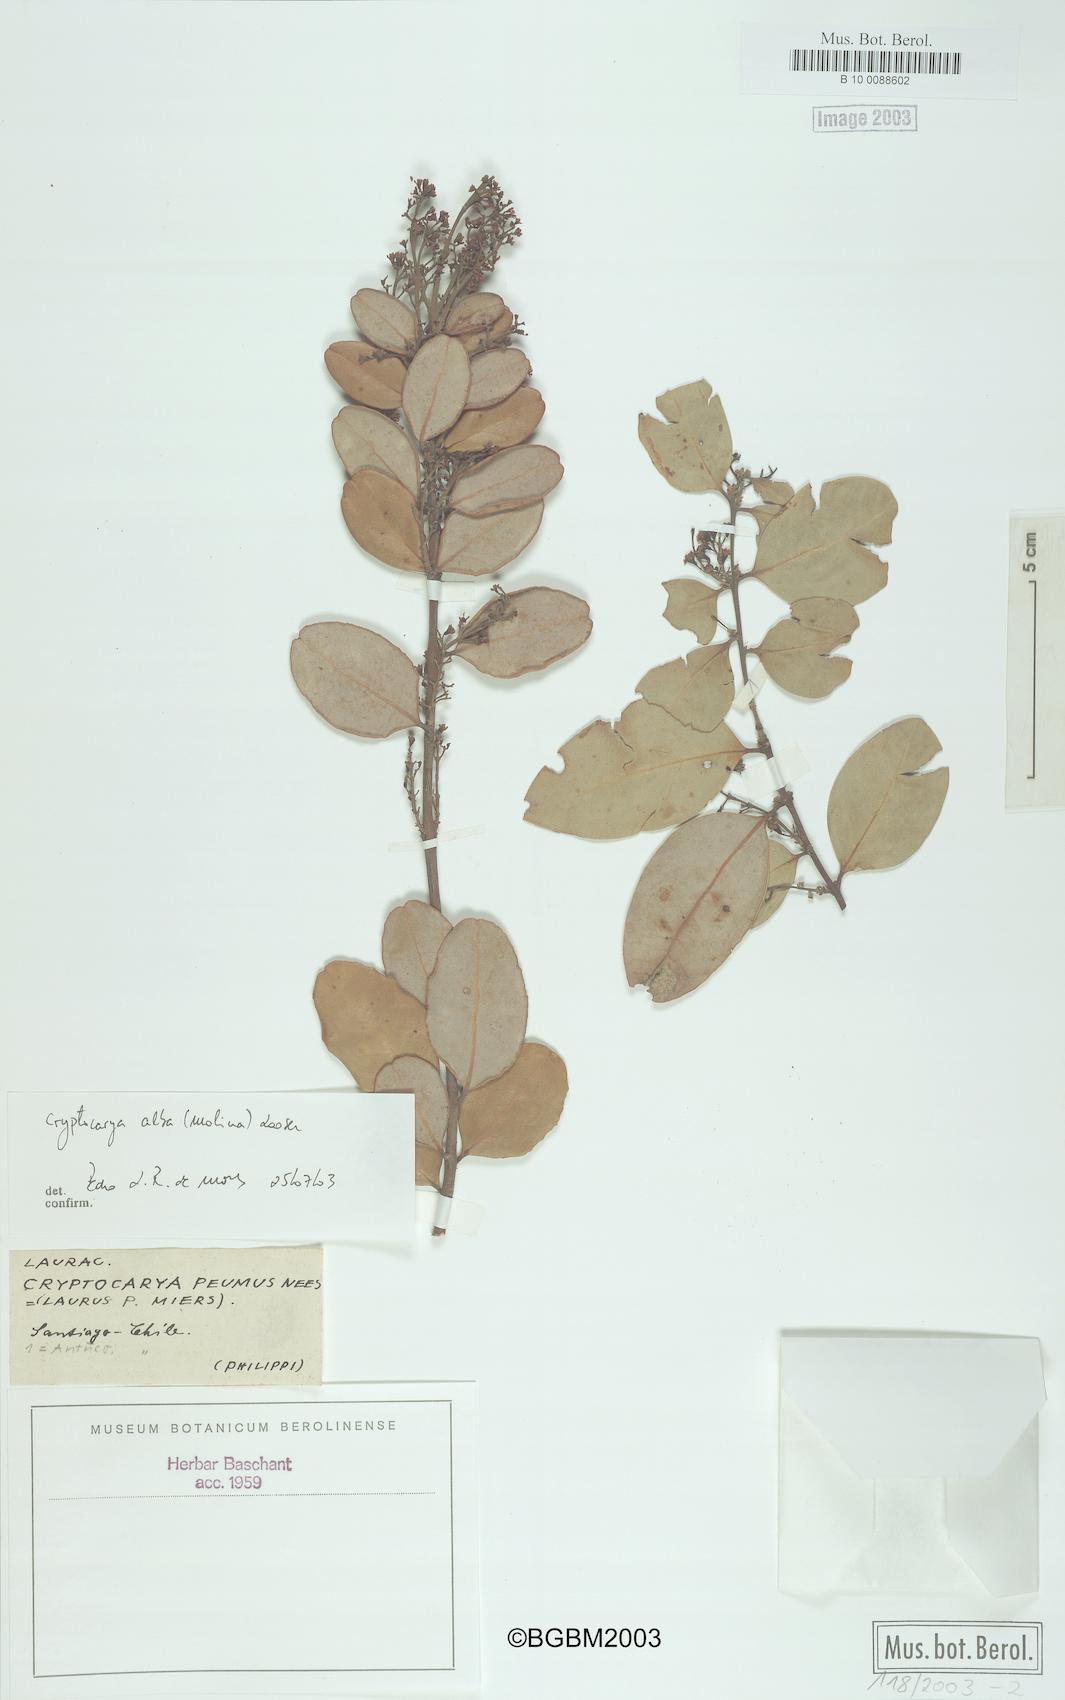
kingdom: Plantae
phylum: Tracheophyta
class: Magnoliopsida
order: Laurales
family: Lauraceae
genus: Cryptocarya
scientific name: Cryptocarya alba
